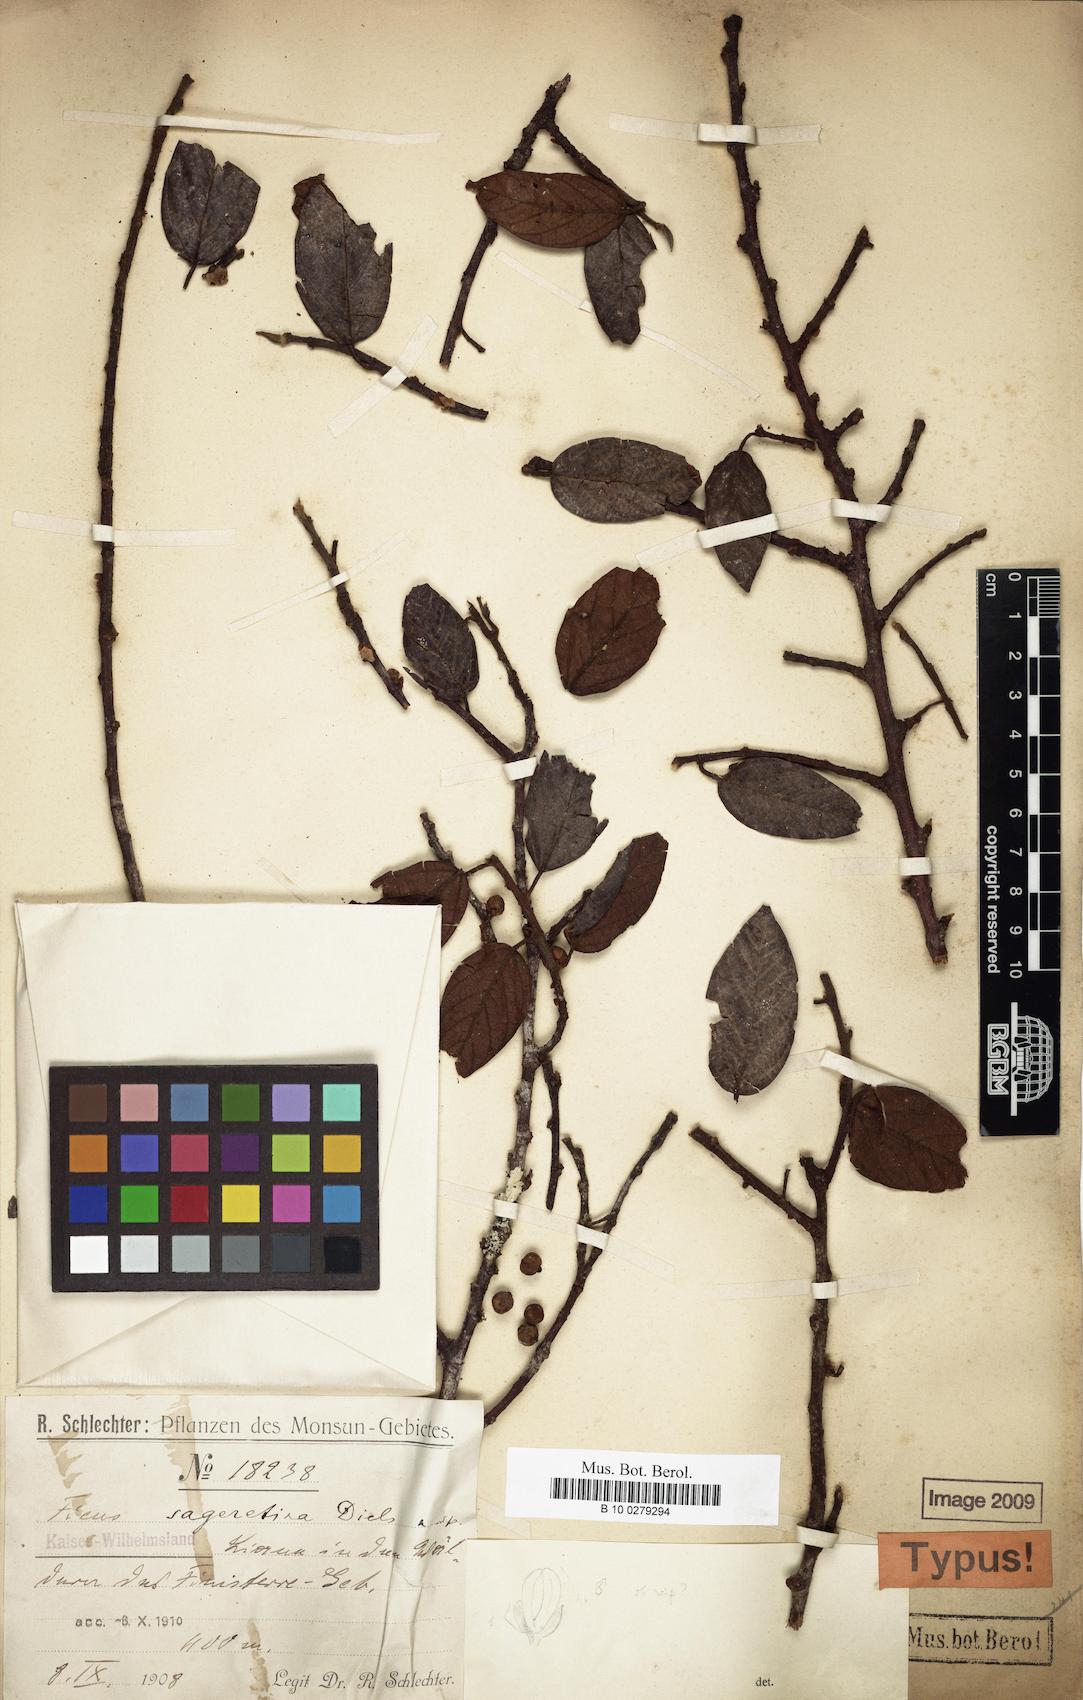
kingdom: Plantae
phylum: Tracheophyta
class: Magnoliopsida
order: Rosales
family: Moraceae
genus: Ficus
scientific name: Ficus sageretina
